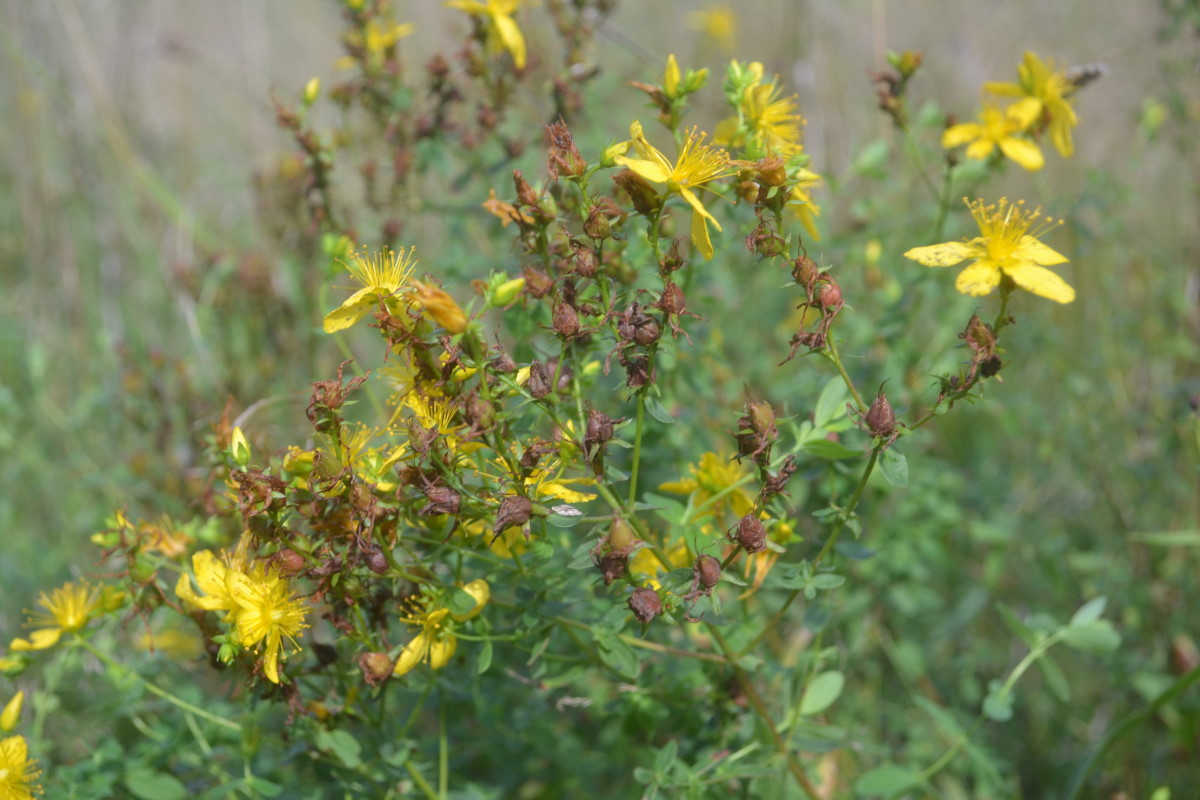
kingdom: Plantae
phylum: Tracheophyta
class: Magnoliopsida
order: Malpighiales
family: Hypericaceae
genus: Hypericum
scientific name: Hypericum perforatum
